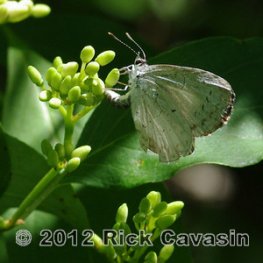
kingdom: Animalia
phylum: Arthropoda
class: Insecta
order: Lepidoptera
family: Lycaenidae
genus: Celastrina
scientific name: Celastrina lucia
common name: Northern Spring Azure
